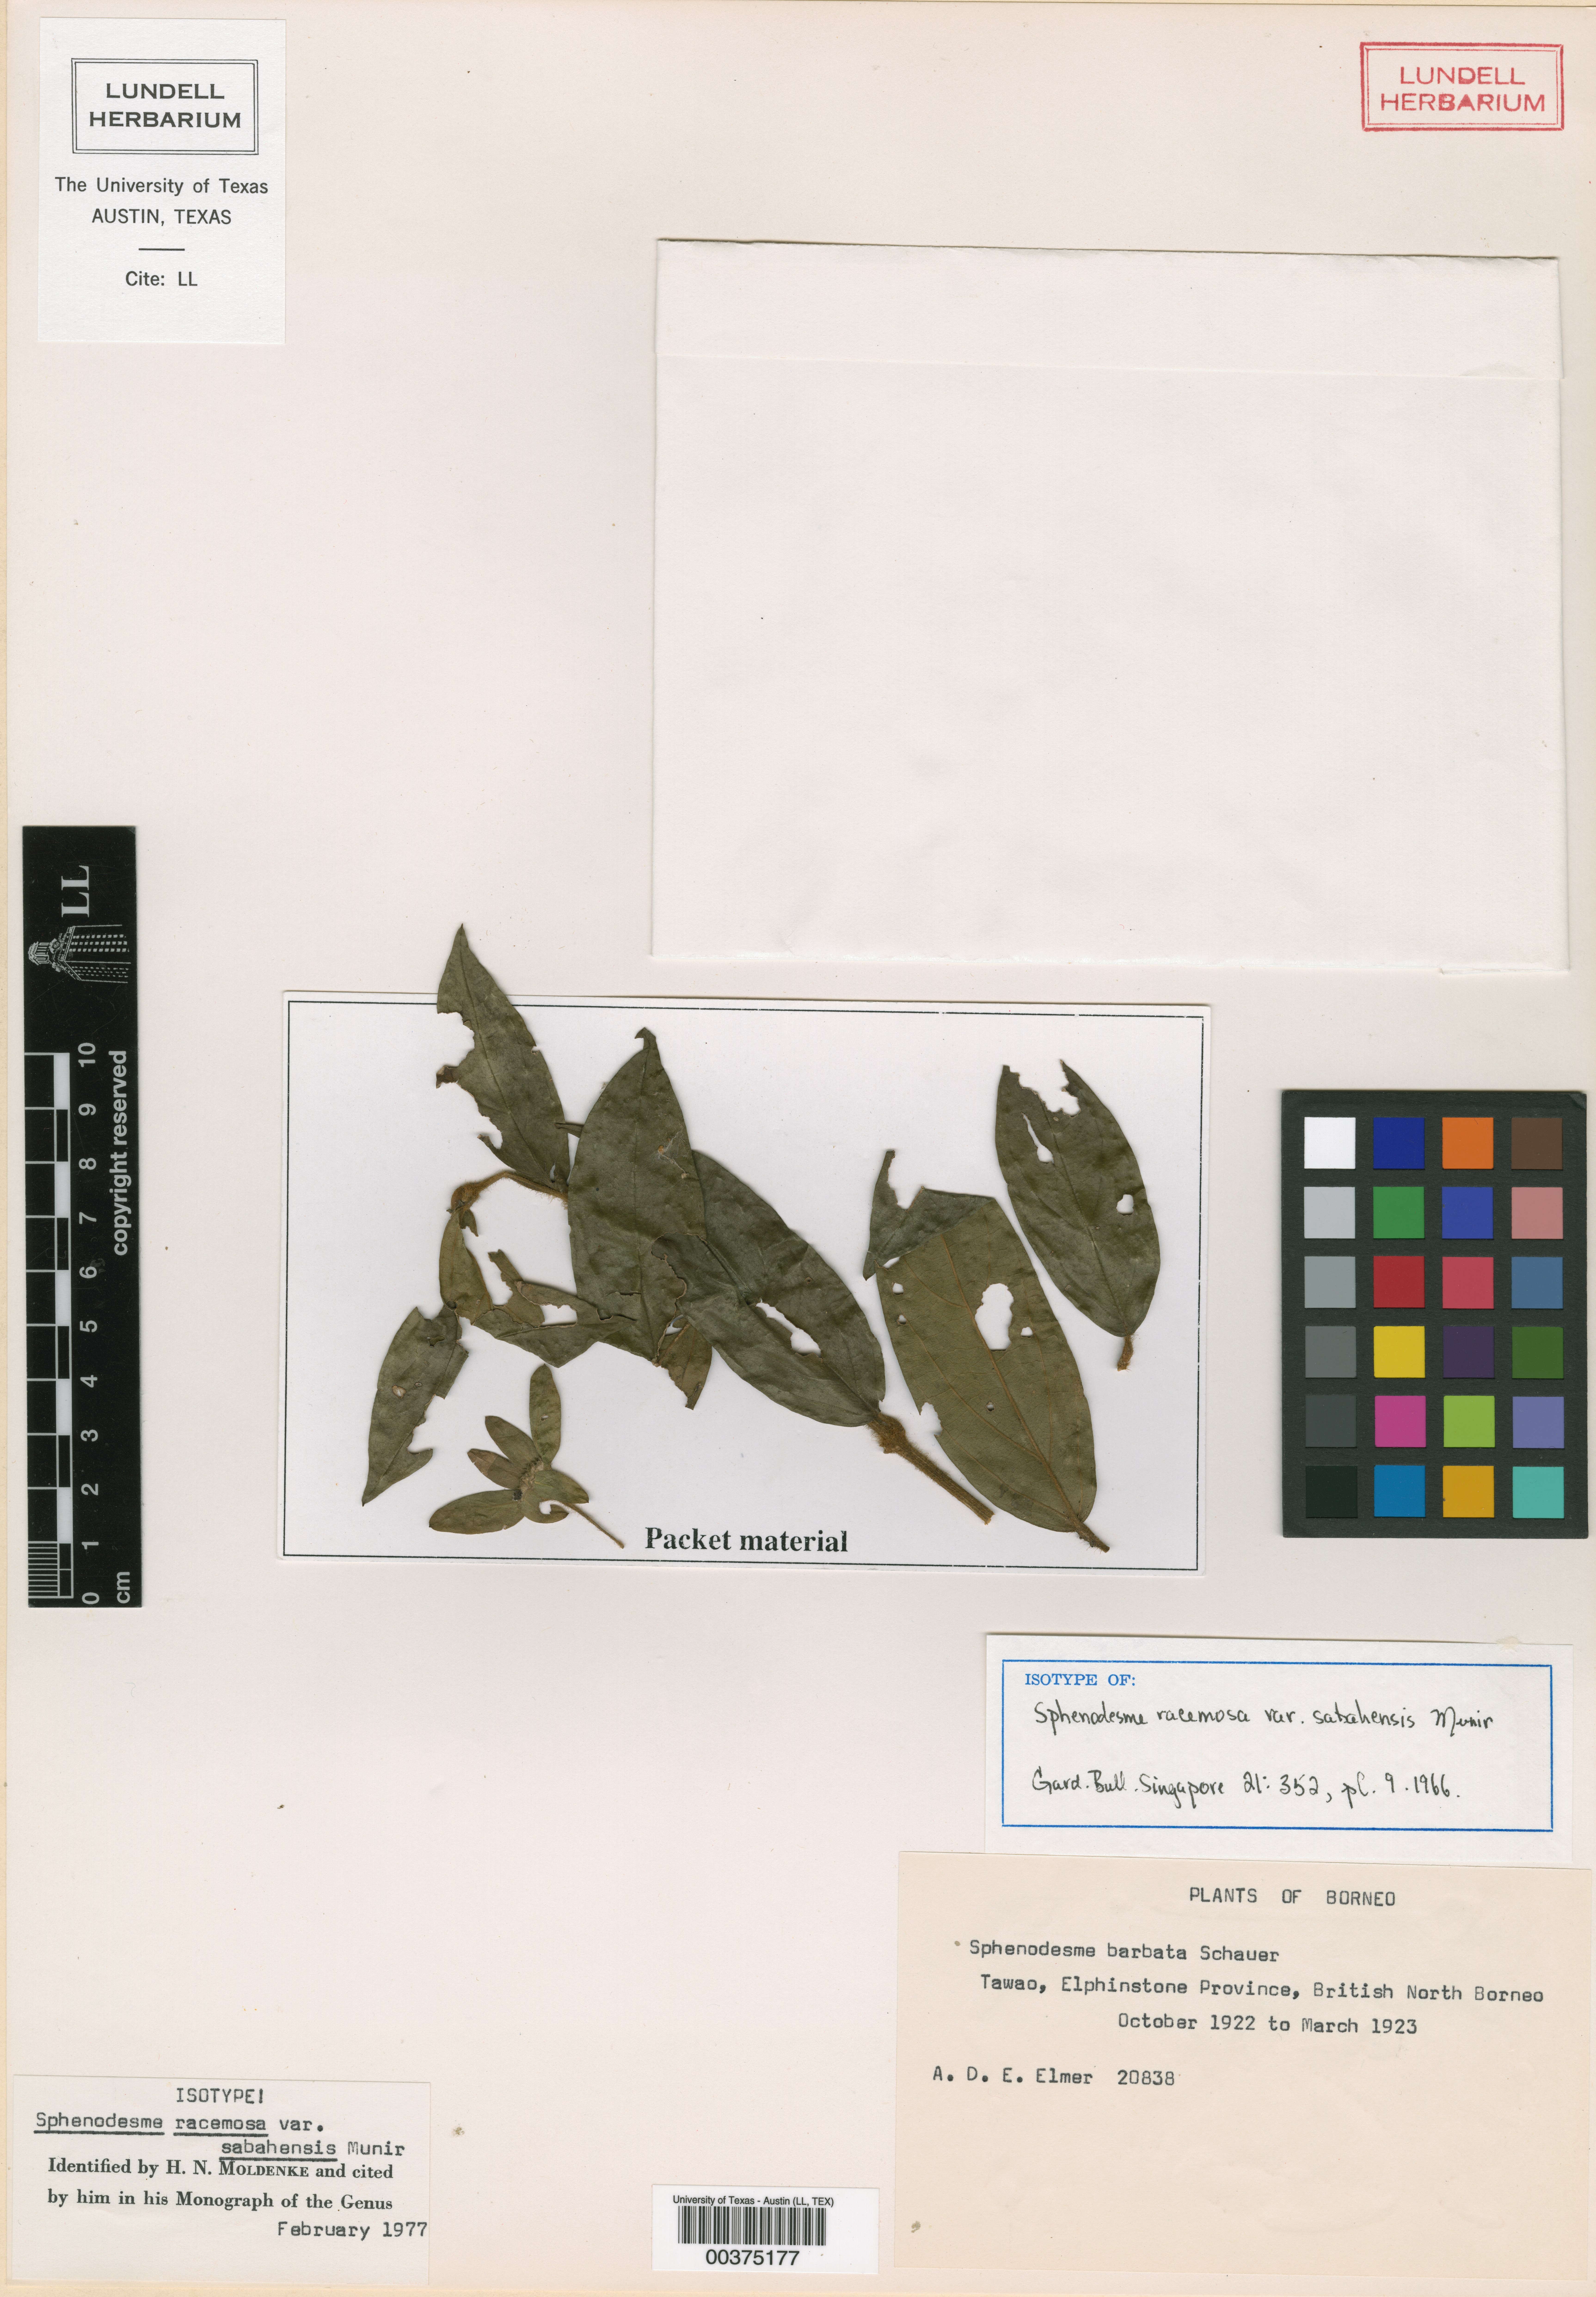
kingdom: Plantae
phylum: Tracheophyta
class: Magnoliopsida
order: Malpighiales
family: Hypericaceae
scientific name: Hypericaceae
